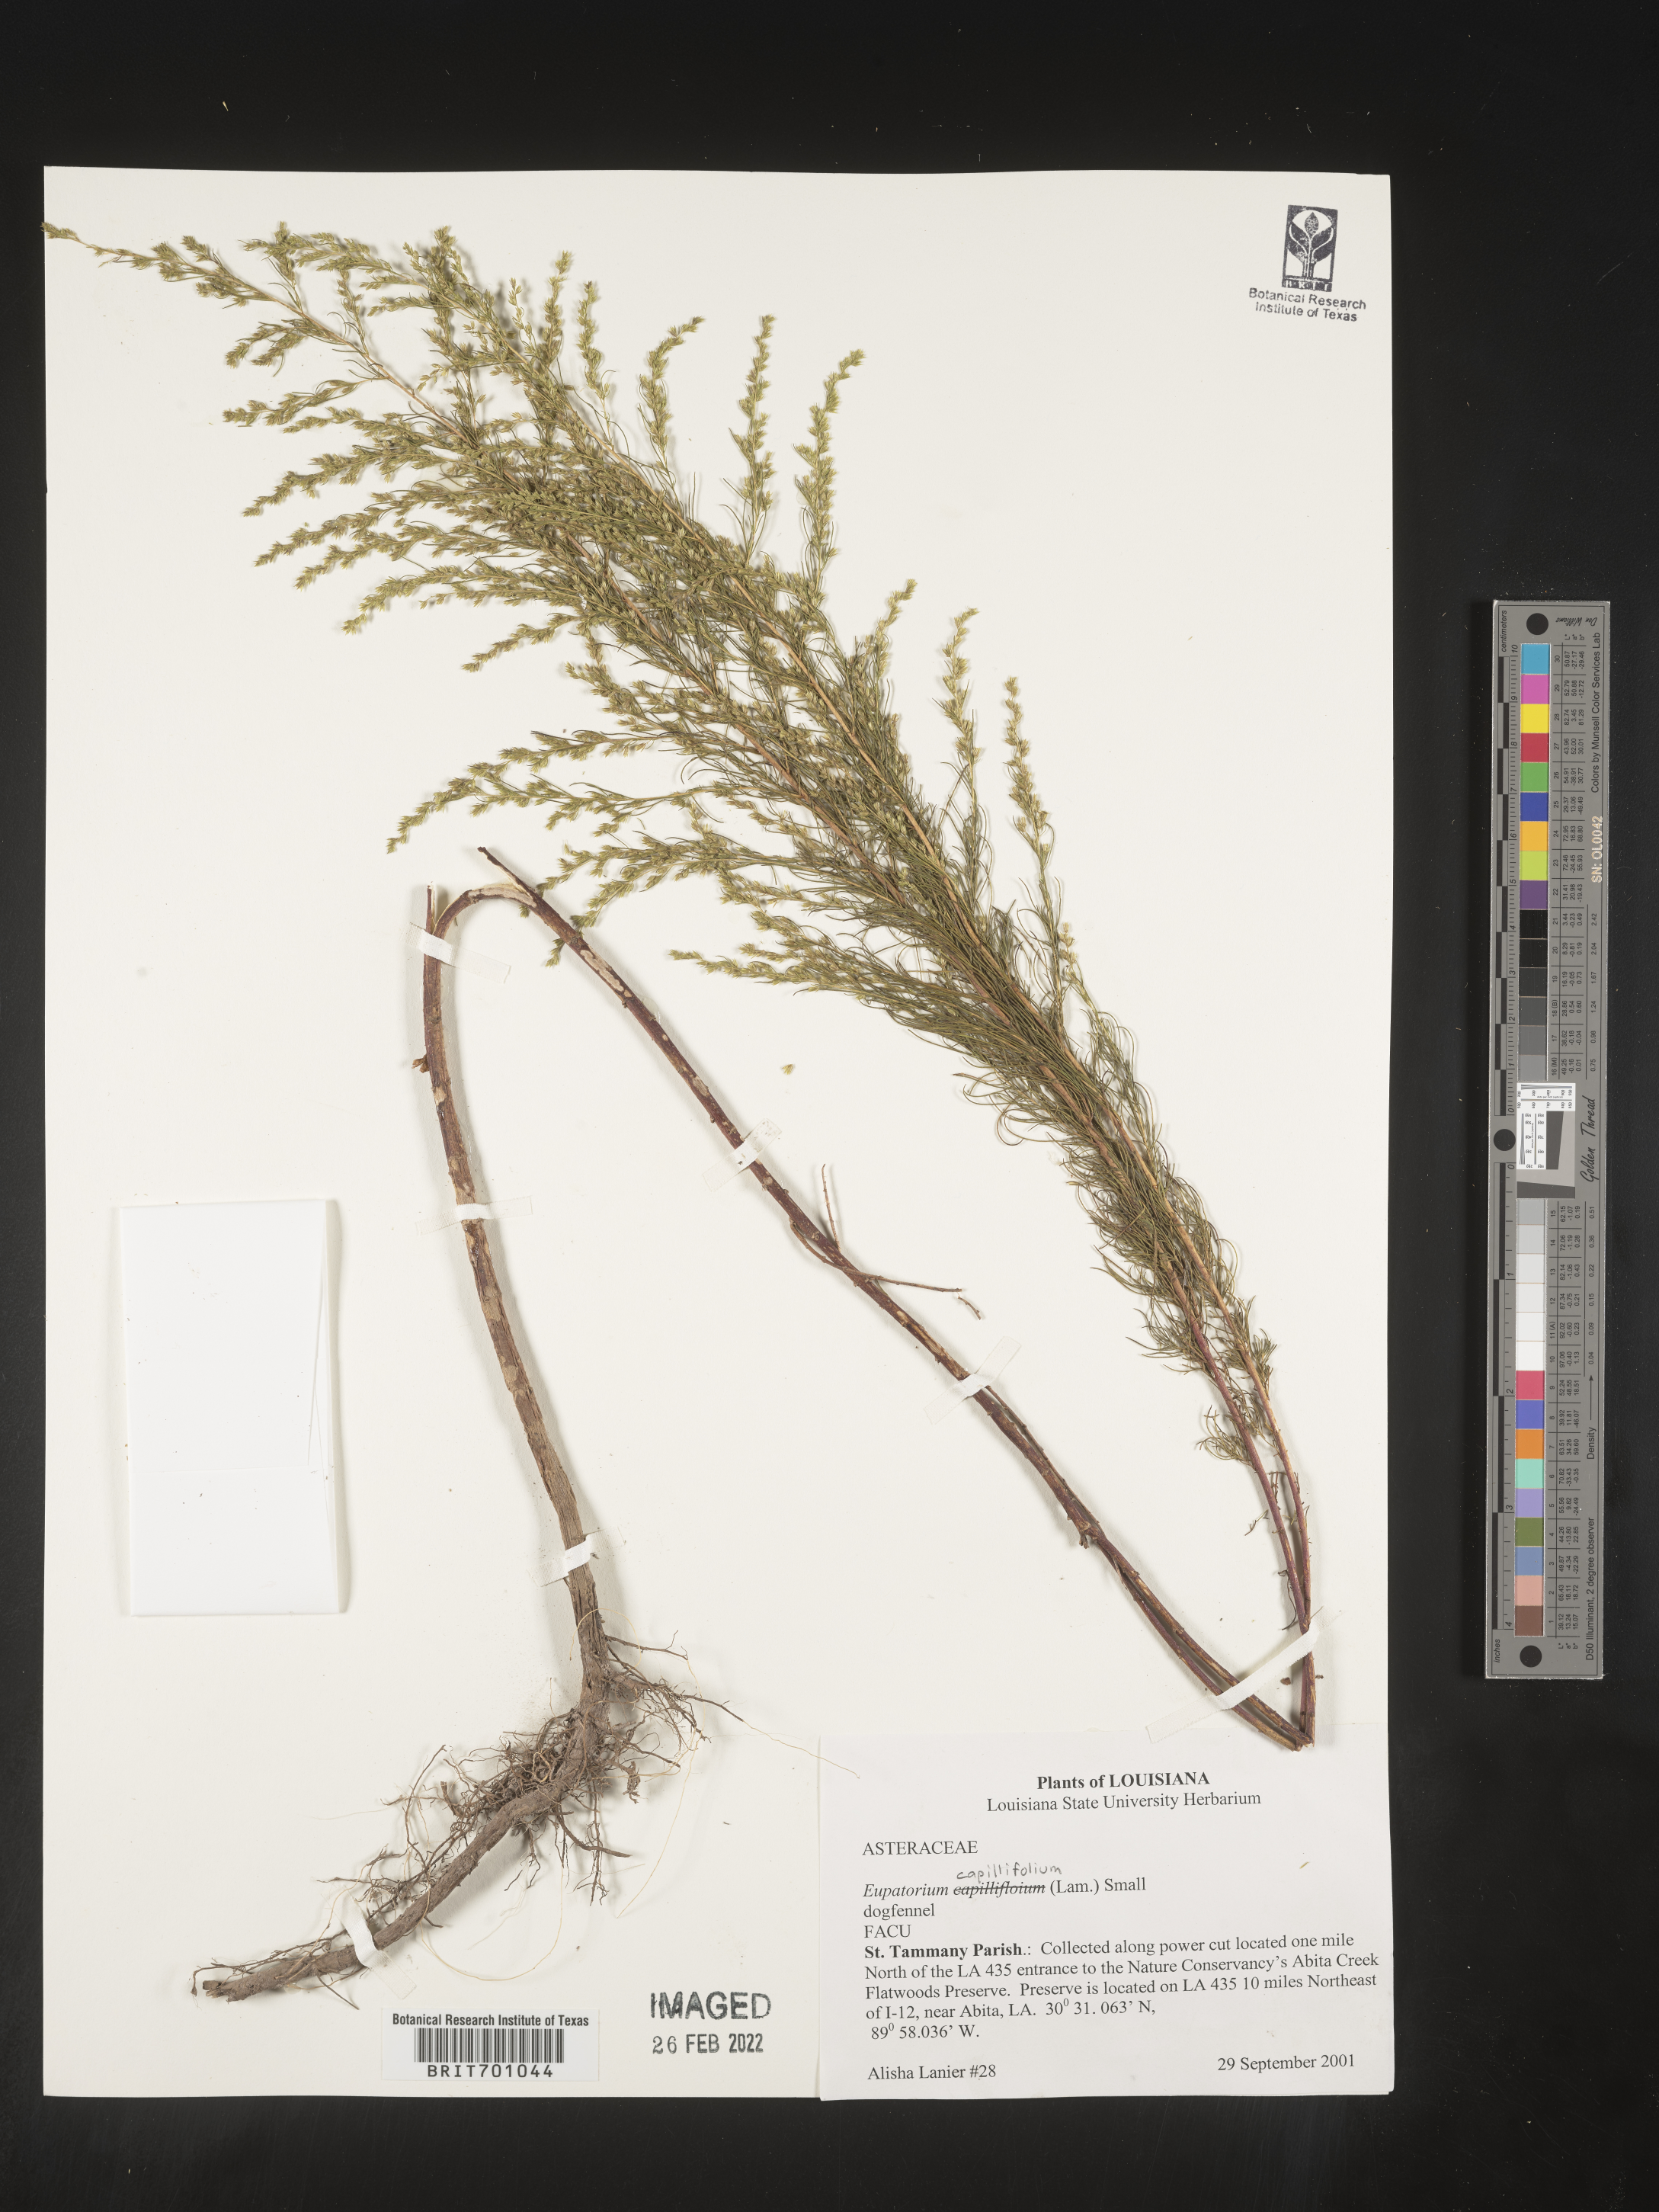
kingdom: Plantae
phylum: Tracheophyta
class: Magnoliopsida
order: Asterales
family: Asteraceae
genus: Eupatorium
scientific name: Eupatorium capillifolium
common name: Dog-fennel
